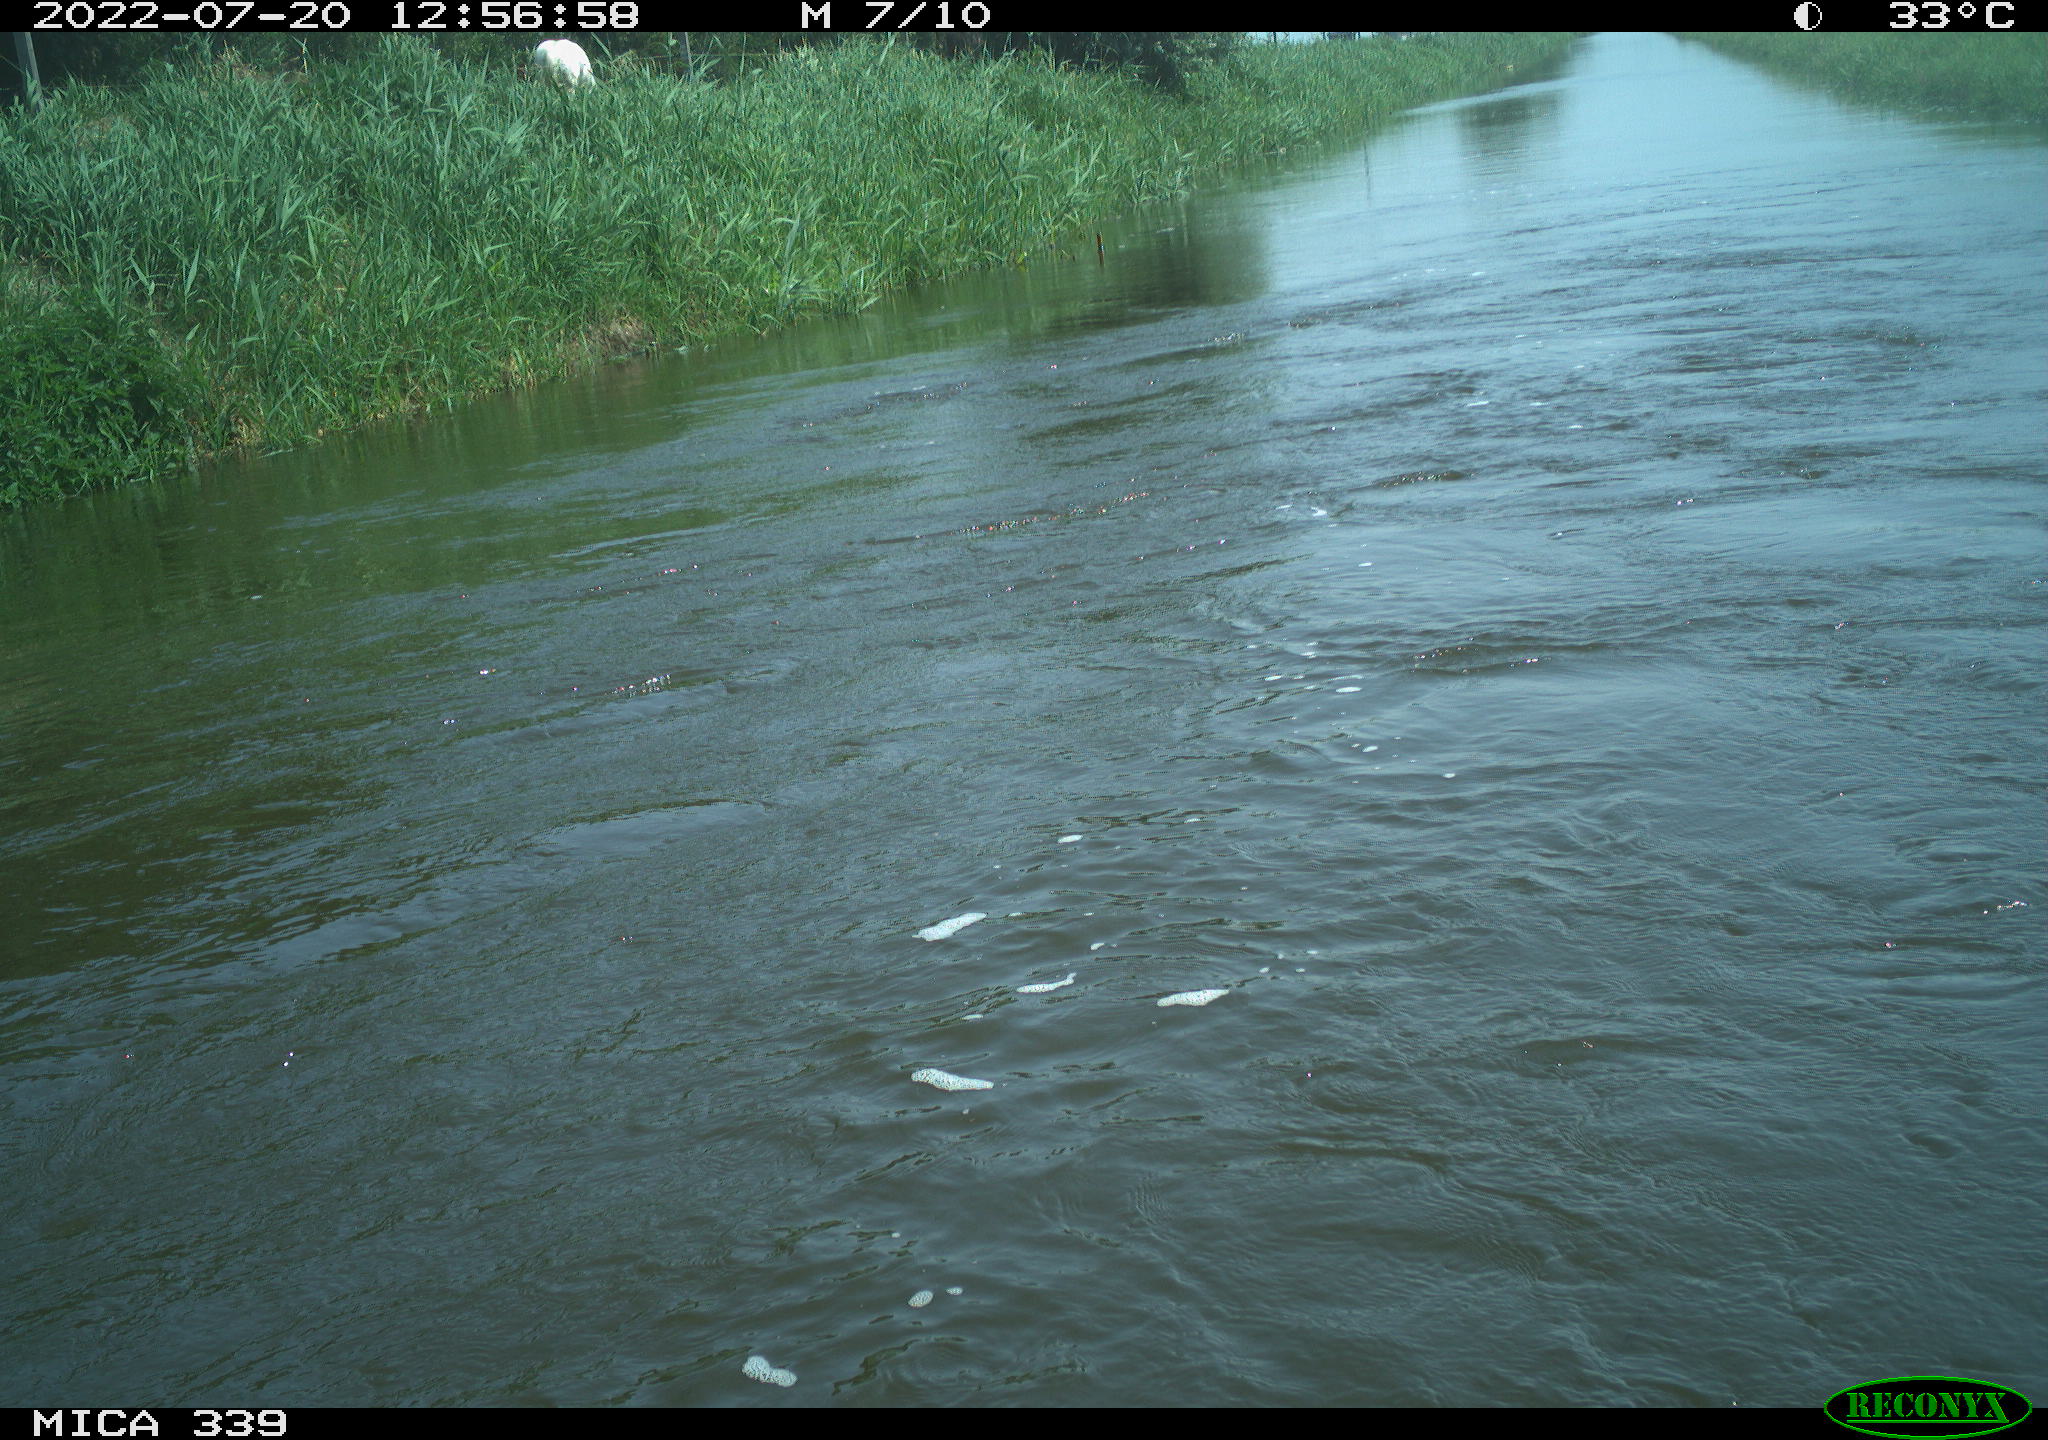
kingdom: Animalia
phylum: Chordata
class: Aves
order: Pelecaniformes
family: Ardeidae
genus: Ardea
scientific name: Ardea cinerea
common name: Grey heron
